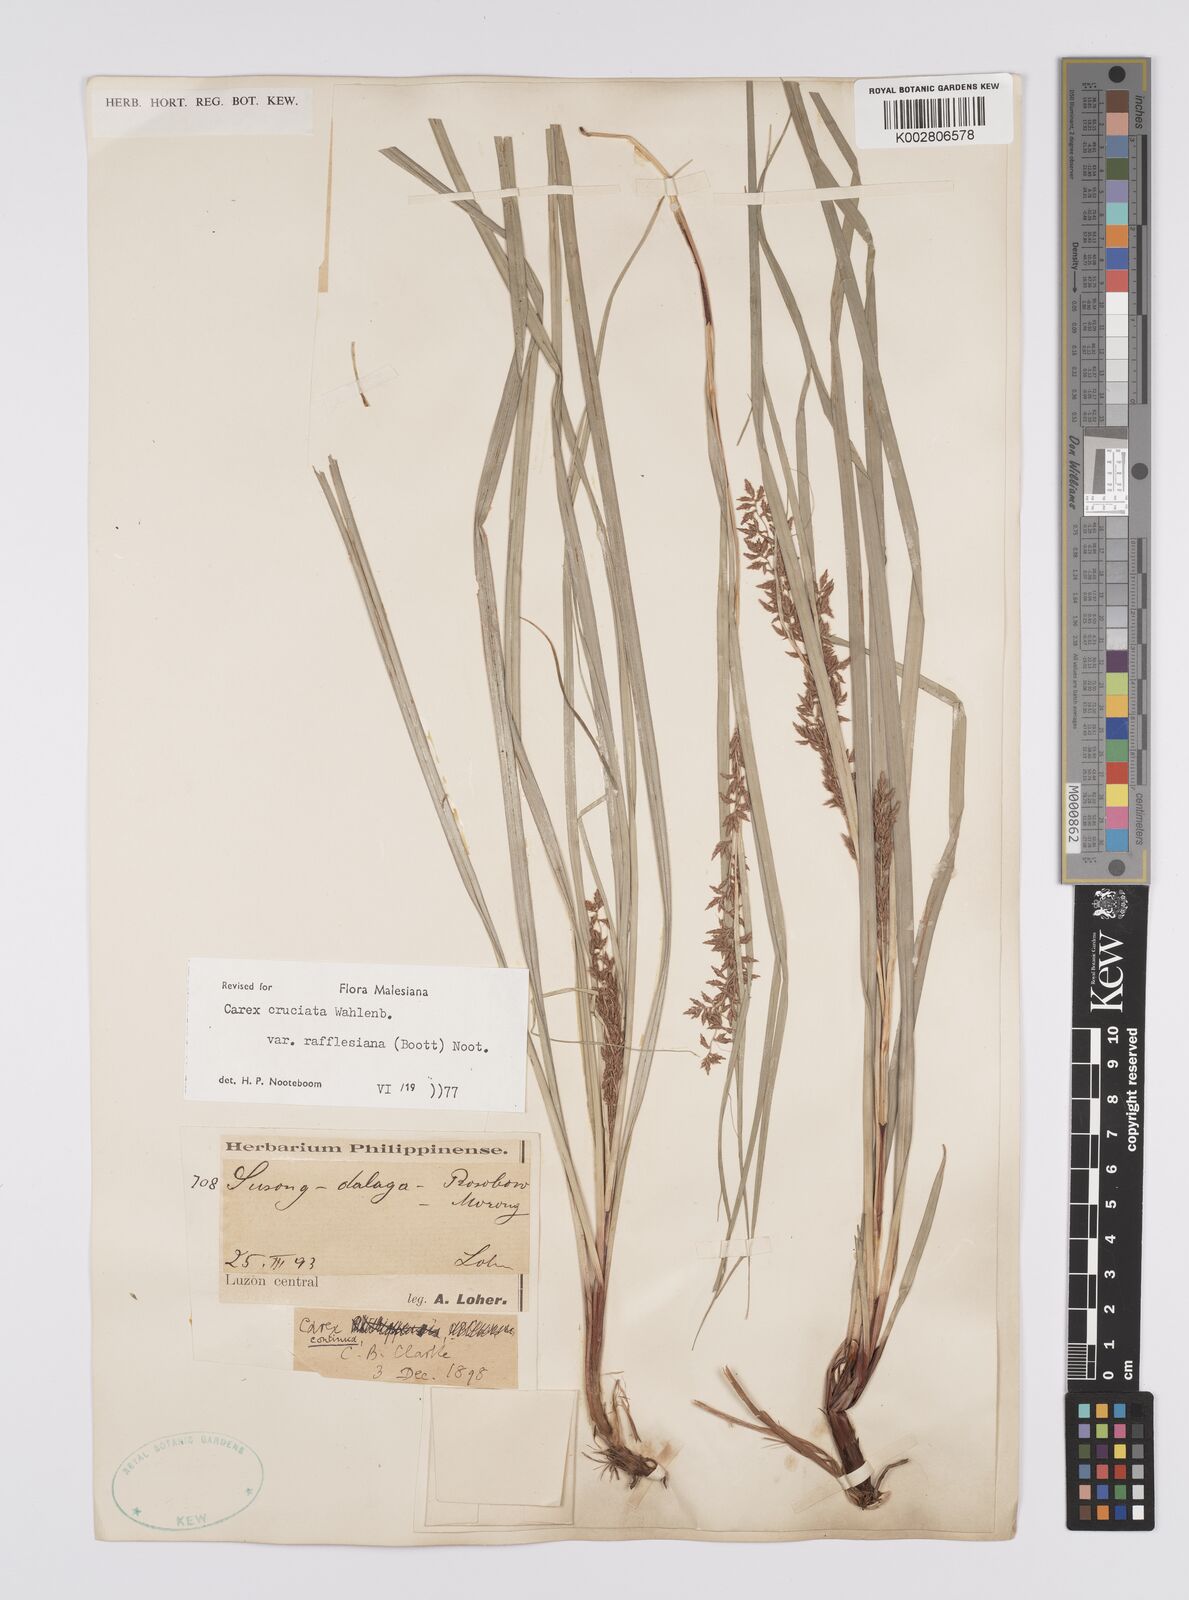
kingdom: Plantae
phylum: Tracheophyta
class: Liliopsida
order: Poales
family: Cyperaceae
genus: Carex
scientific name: Carex rafflesiana
